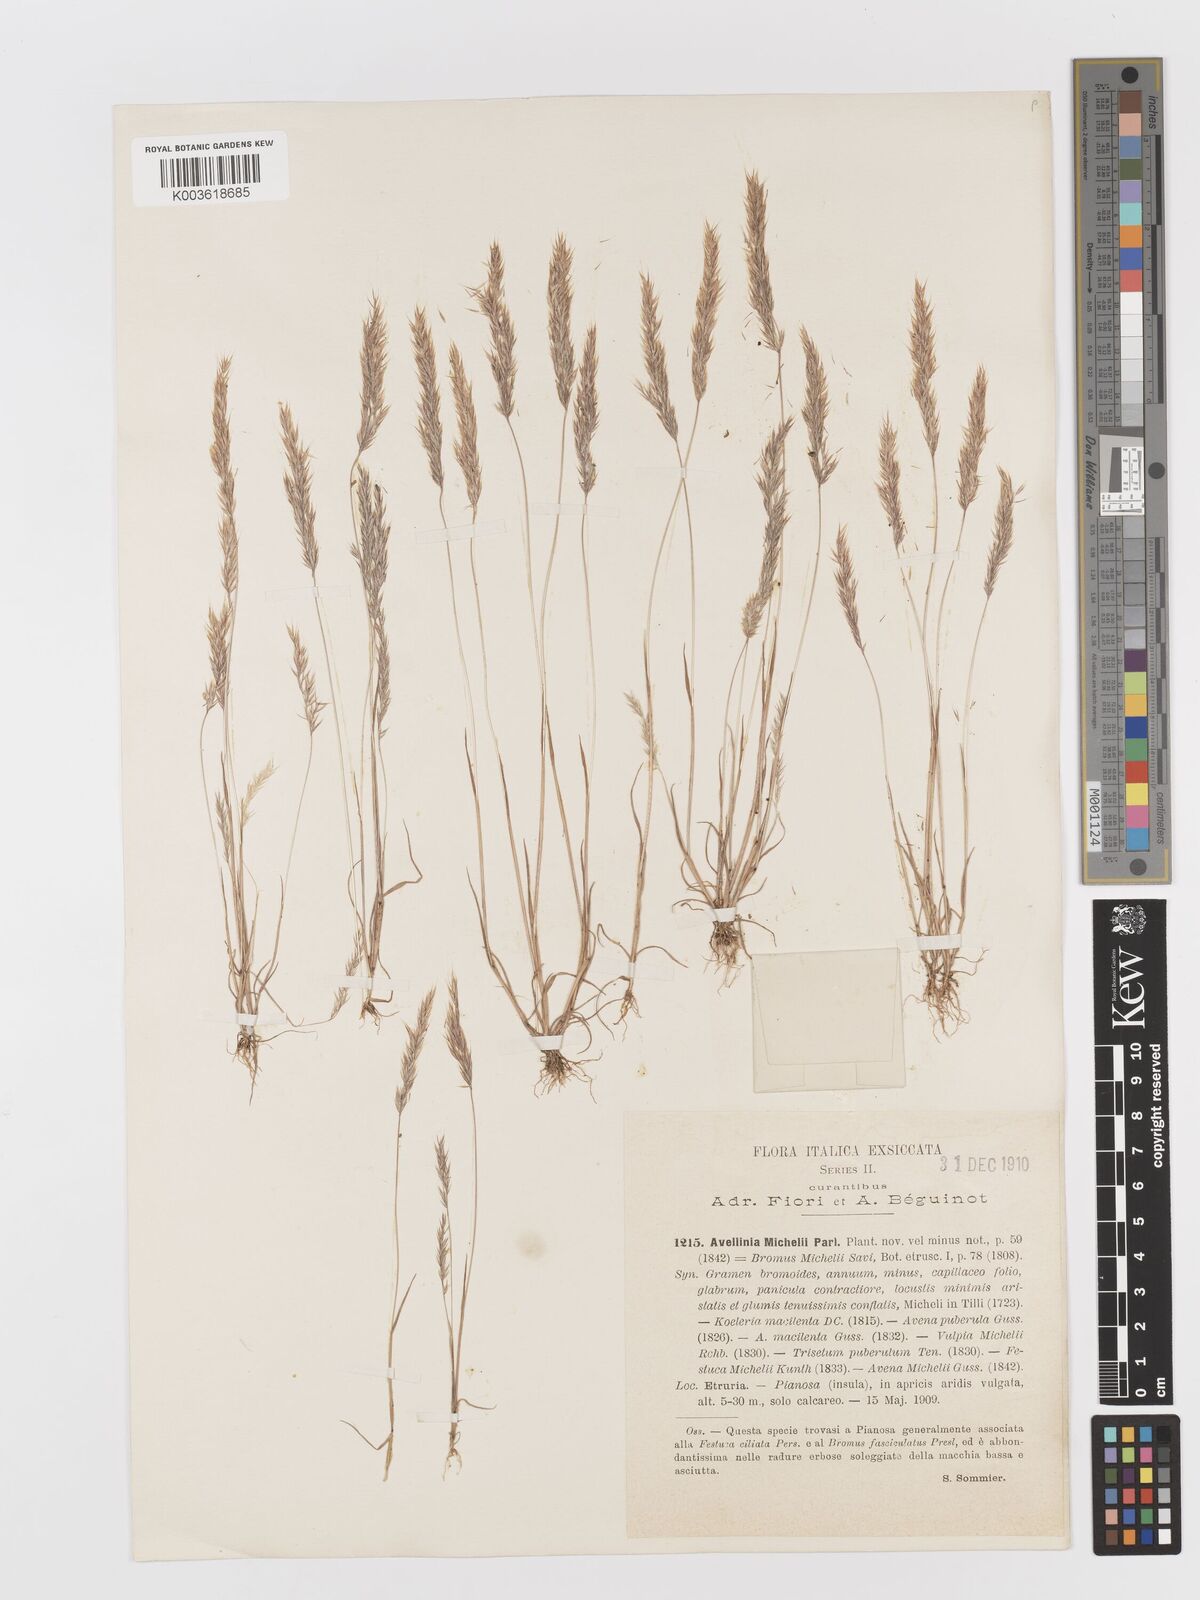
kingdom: Plantae
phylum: Tracheophyta
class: Liliopsida
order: Poales
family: Poaceae
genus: Avellinia
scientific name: Avellinia festucoides
